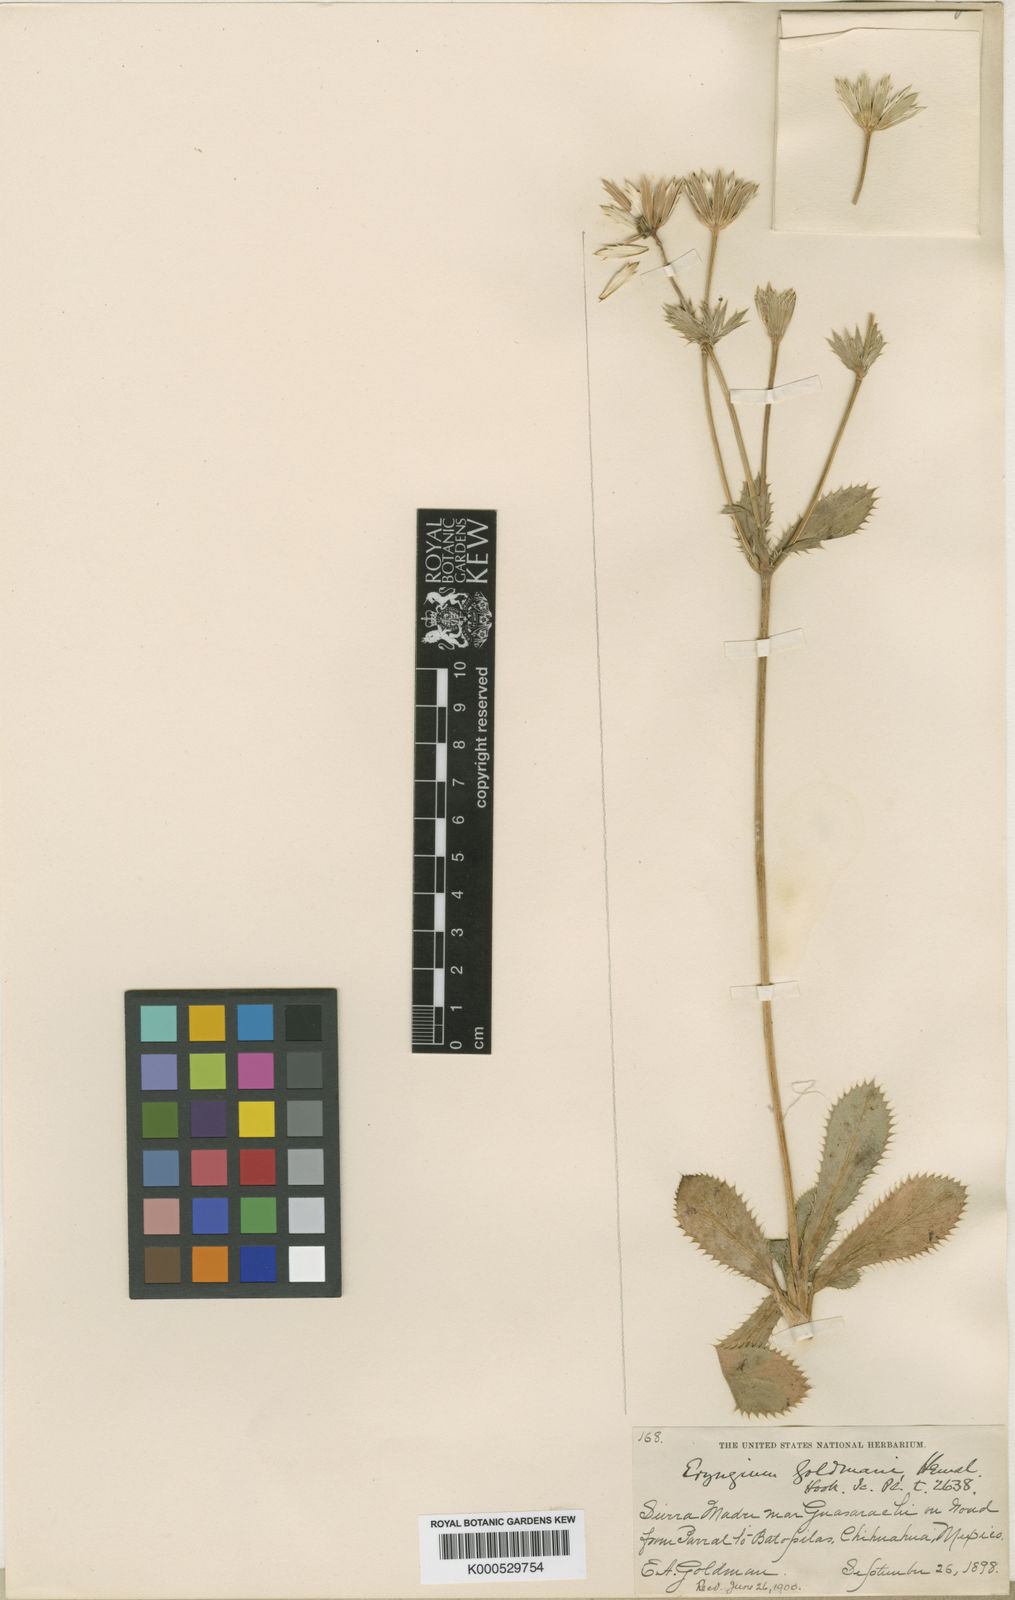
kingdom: Plantae
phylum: Tracheophyta
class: Magnoliopsida
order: Apiales
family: Apiaceae
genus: Eryngium
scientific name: Eryngium lemmonii
